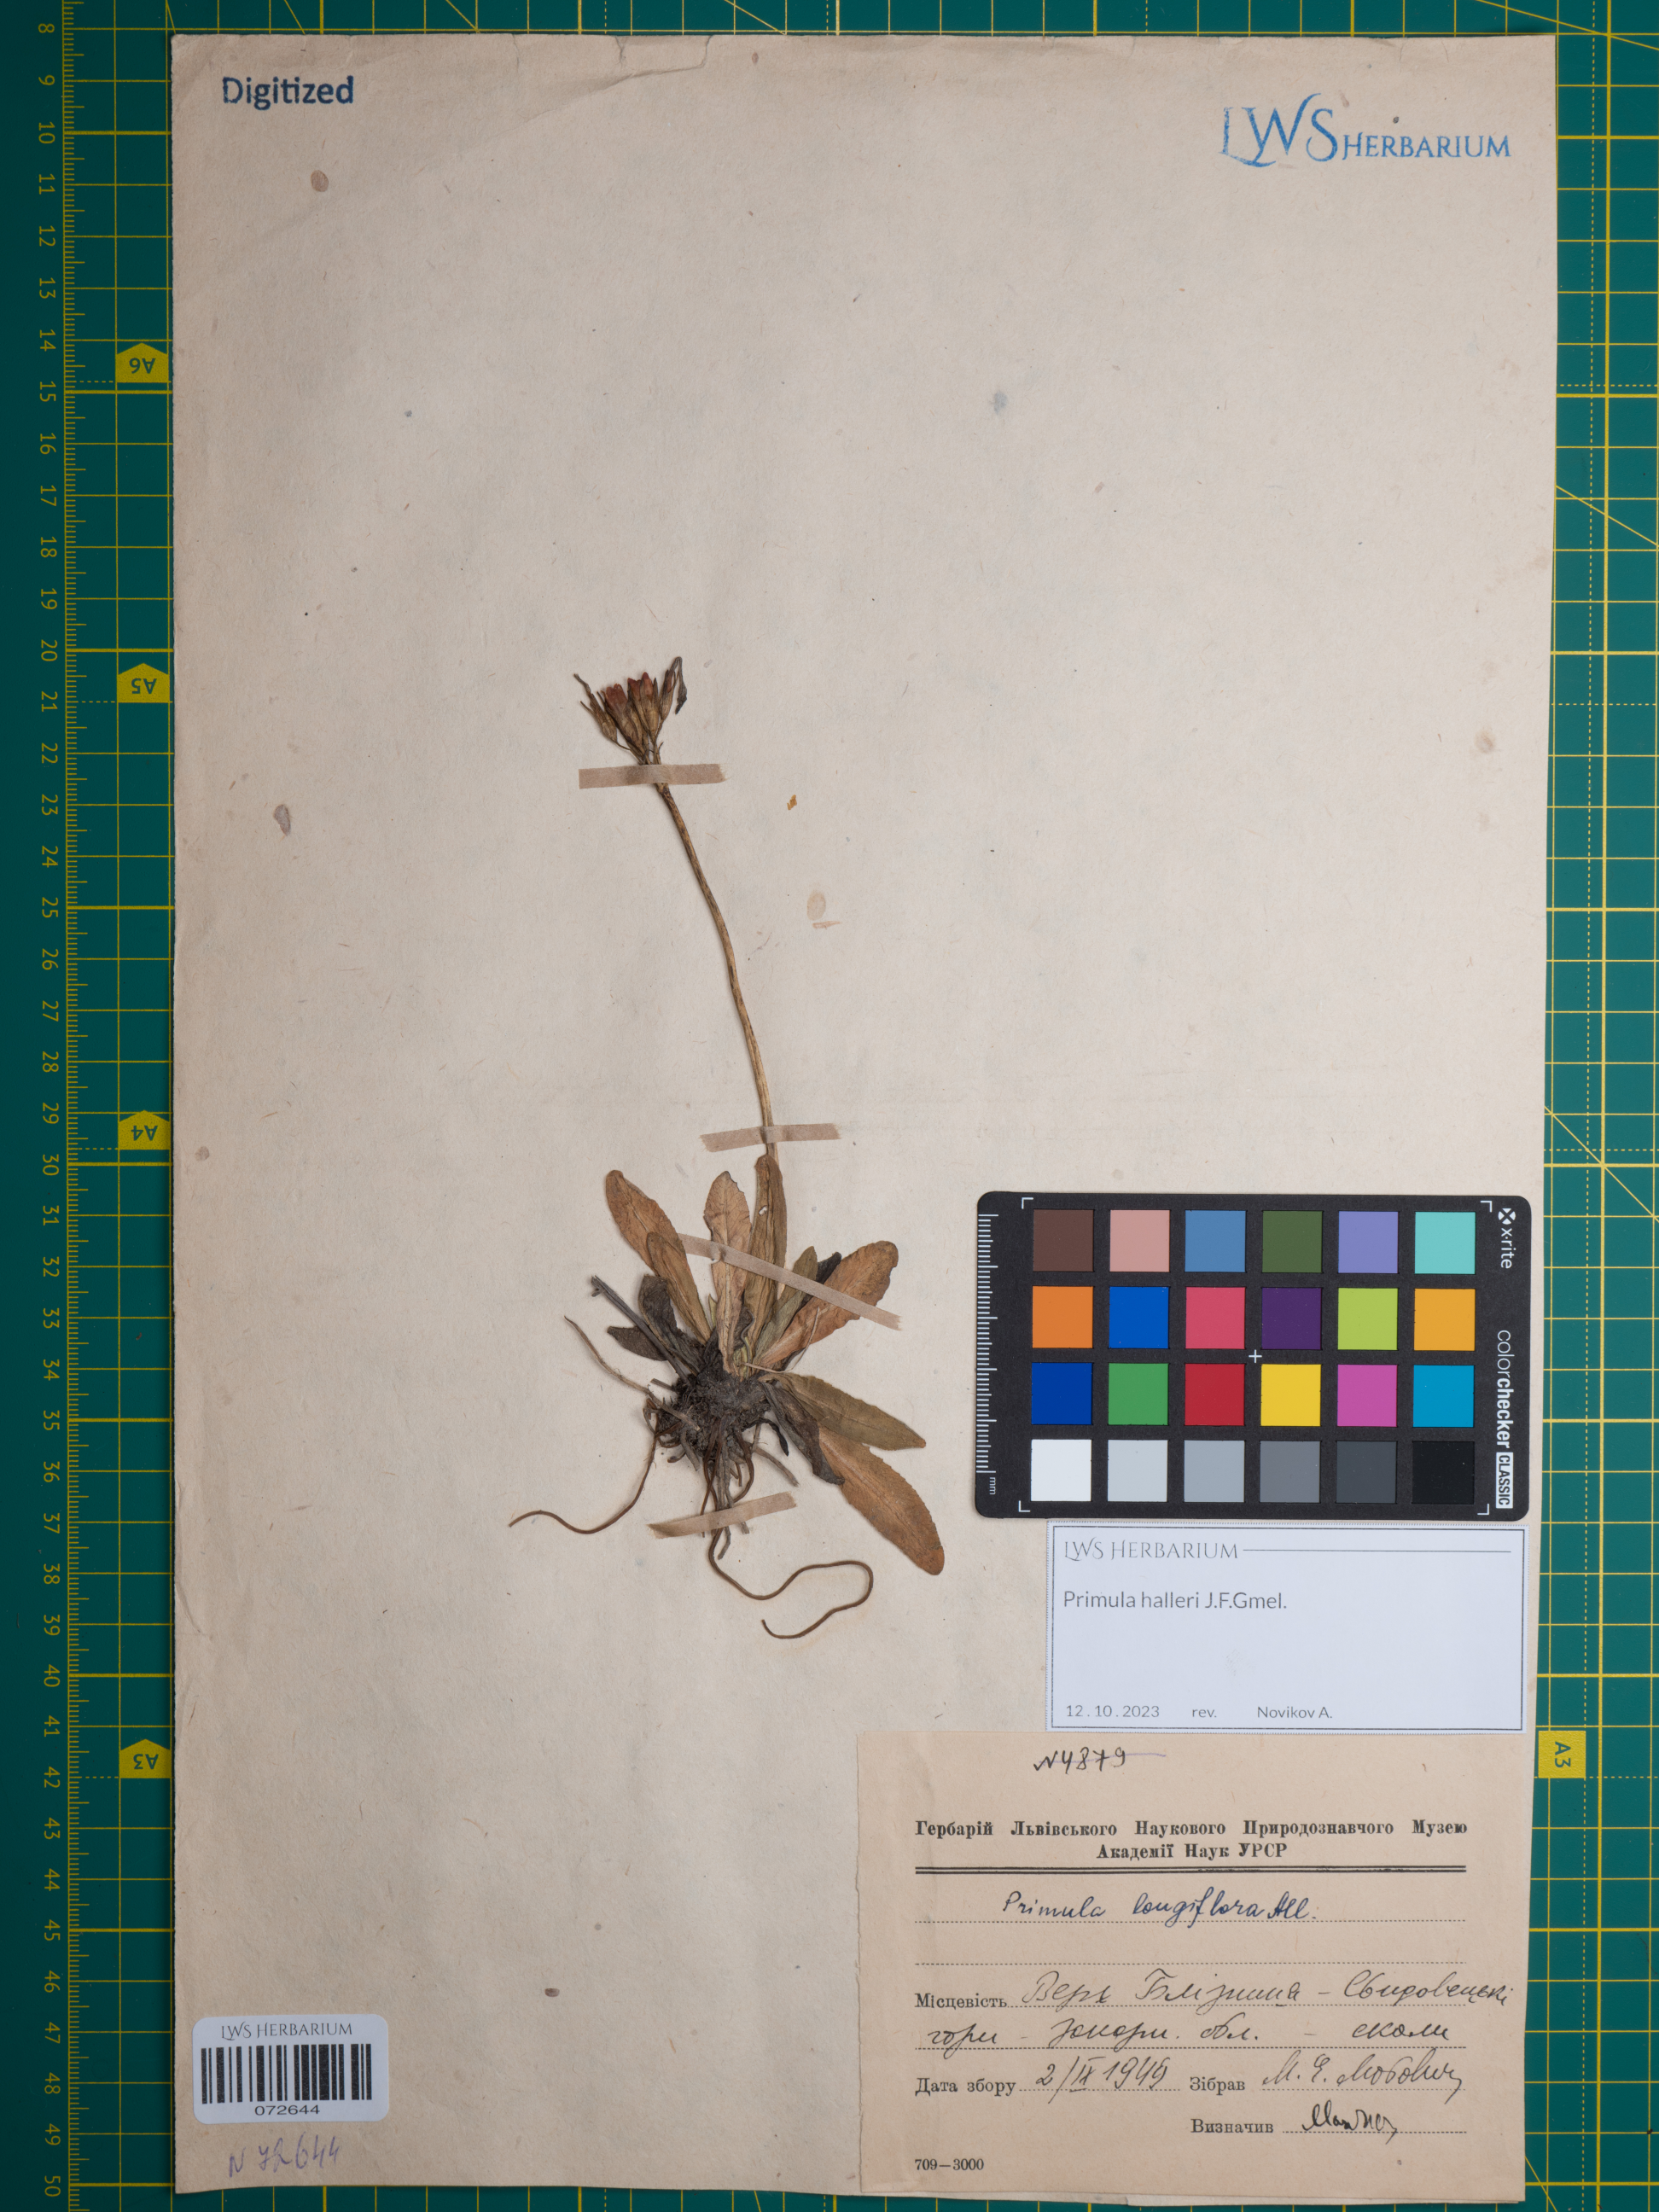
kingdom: Plantae
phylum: Tracheophyta
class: Magnoliopsida
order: Ericales
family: Primulaceae
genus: Primula
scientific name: Primula halleri
